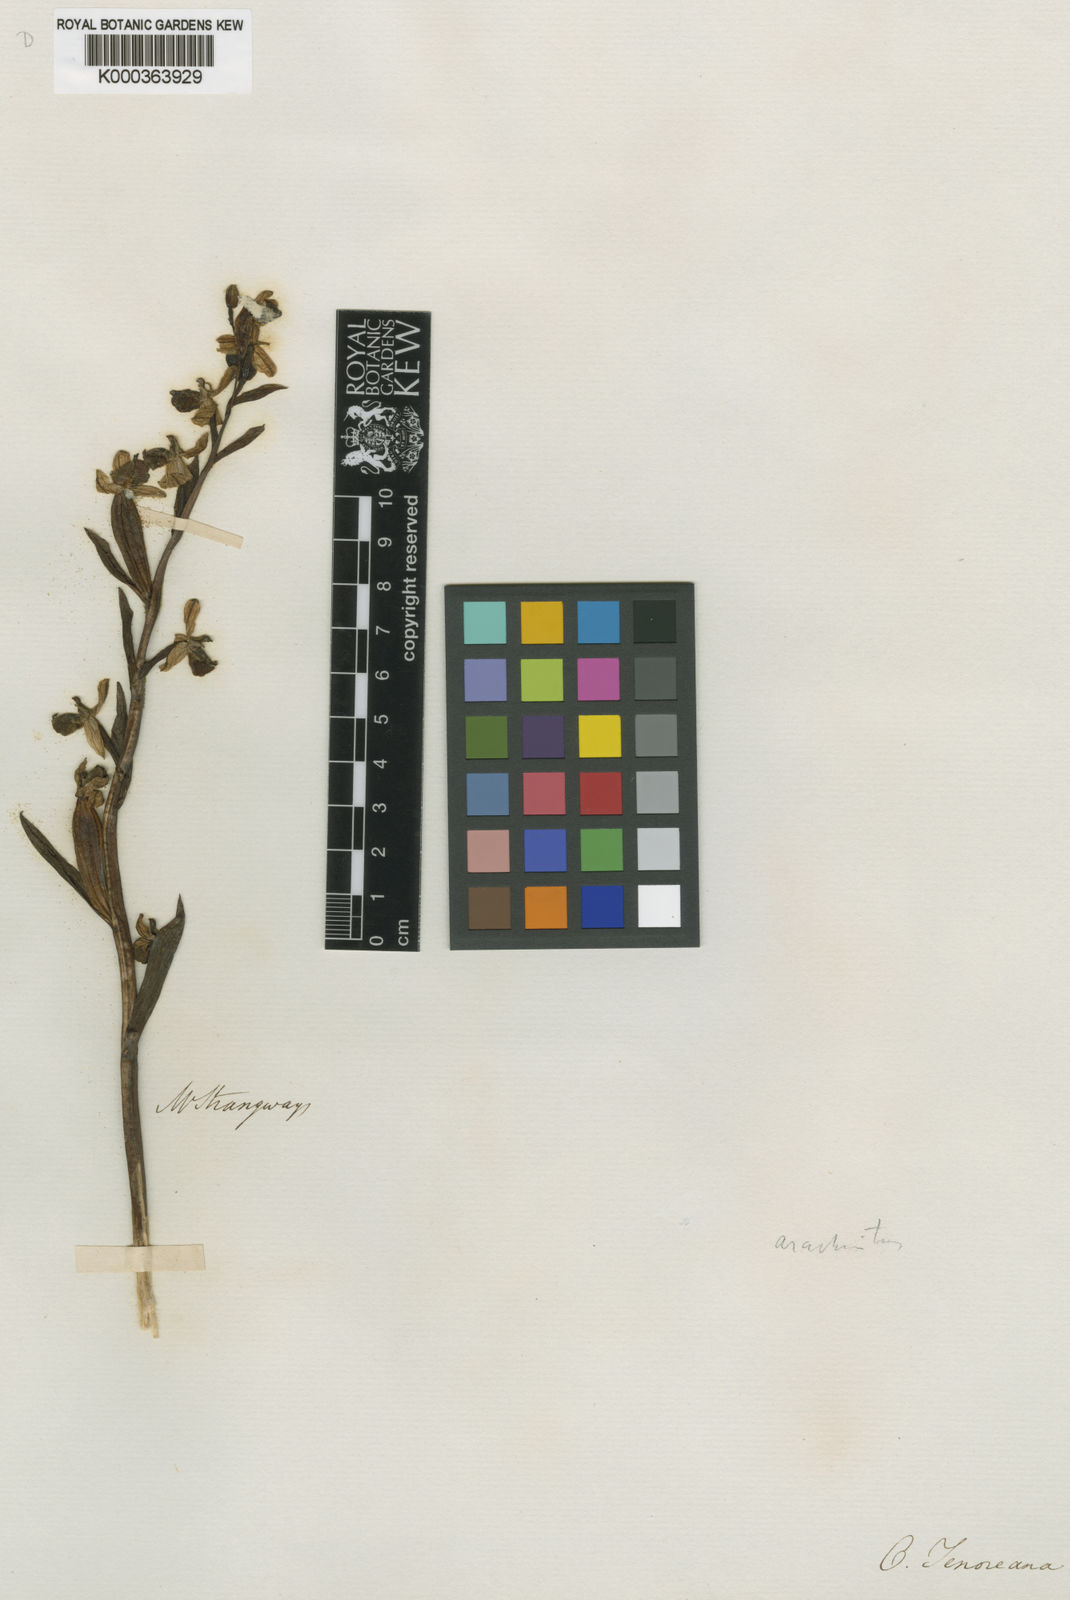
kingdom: Plantae
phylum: Tracheophyta
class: Liliopsida
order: Asparagales
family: Orchidaceae
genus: Ophrys
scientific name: Ophrys tenthredinifera
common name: Sawfly orchid
